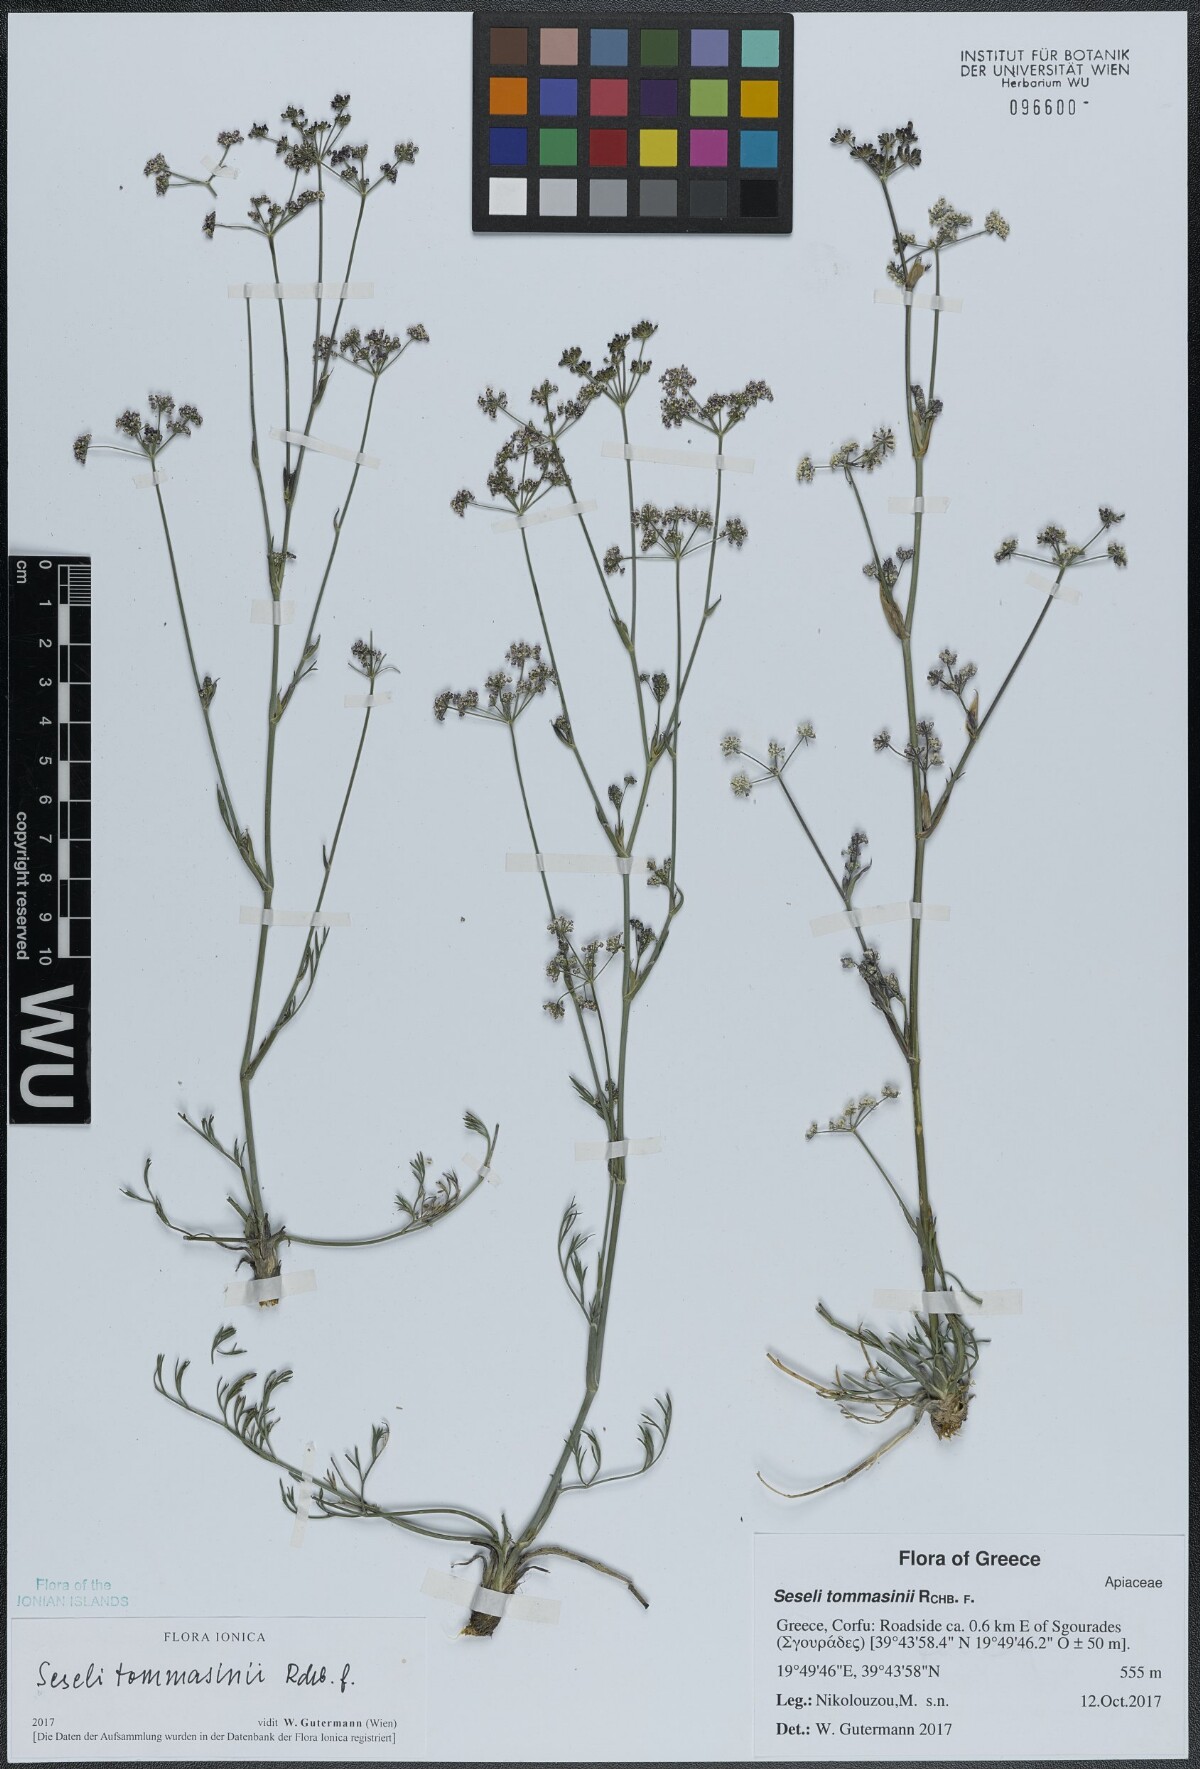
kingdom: Plantae
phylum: Tracheophyta
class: Magnoliopsida
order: Apiales
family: Apiaceae
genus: Seseli
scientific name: Seseli montanum
